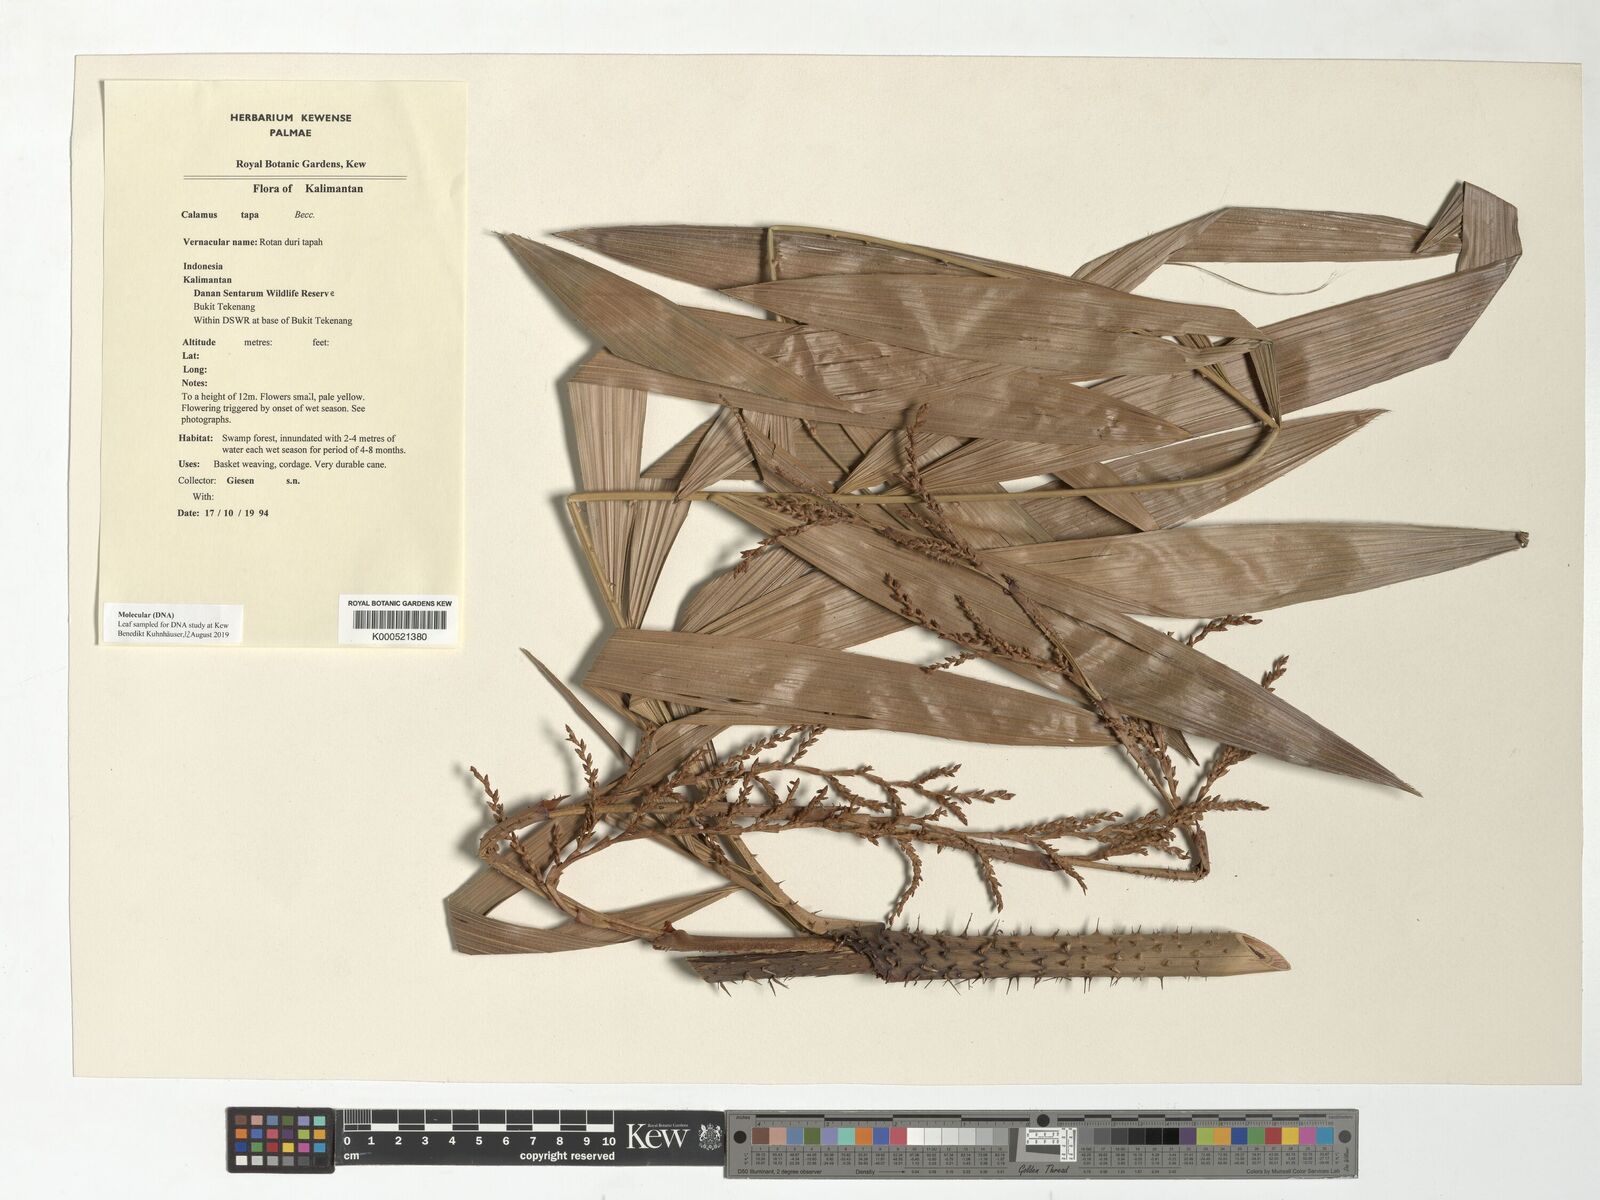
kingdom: Plantae
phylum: Tracheophyta
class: Liliopsida
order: Arecales
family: Arecaceae
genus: Calamus
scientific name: Calamus caesius
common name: Rattan palm
